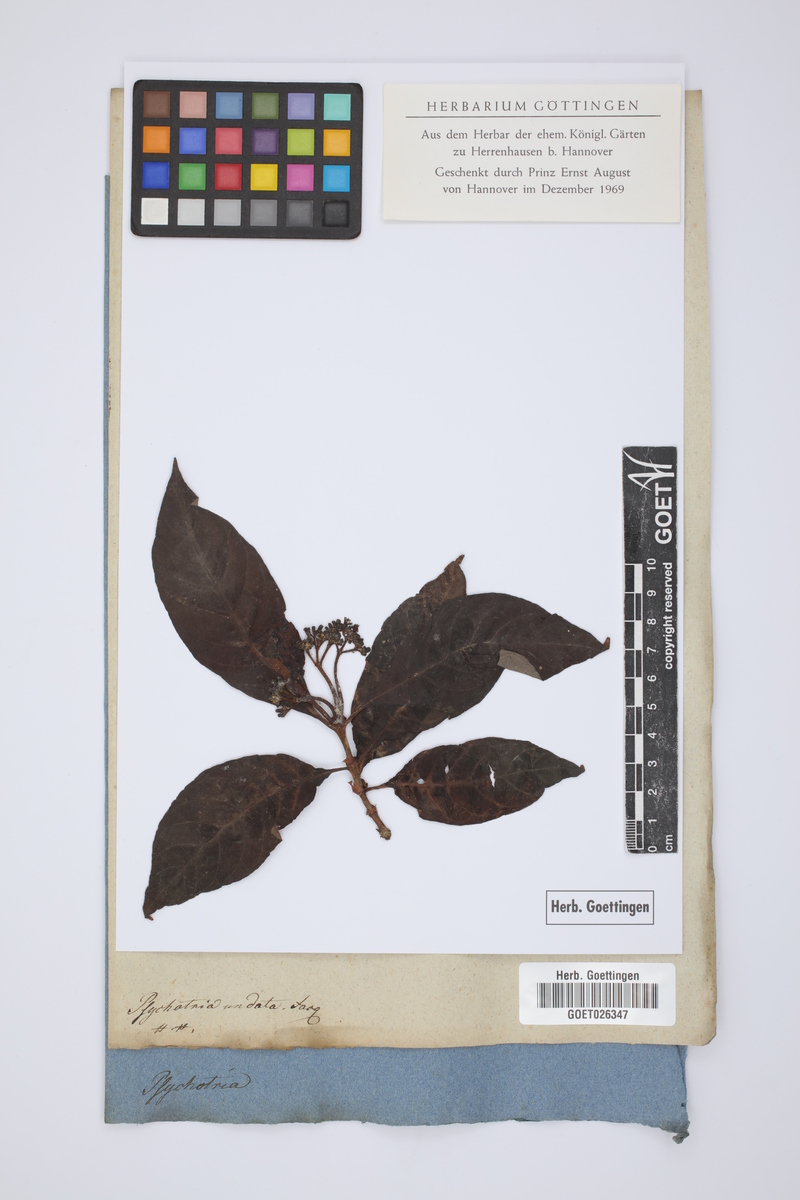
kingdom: Plantae
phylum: Tracheophyta
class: Magnoliopsida
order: Gentianales
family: Rubiaceae
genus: Psychotria
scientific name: Psychotria nervosa
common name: Bastard cankerberry
